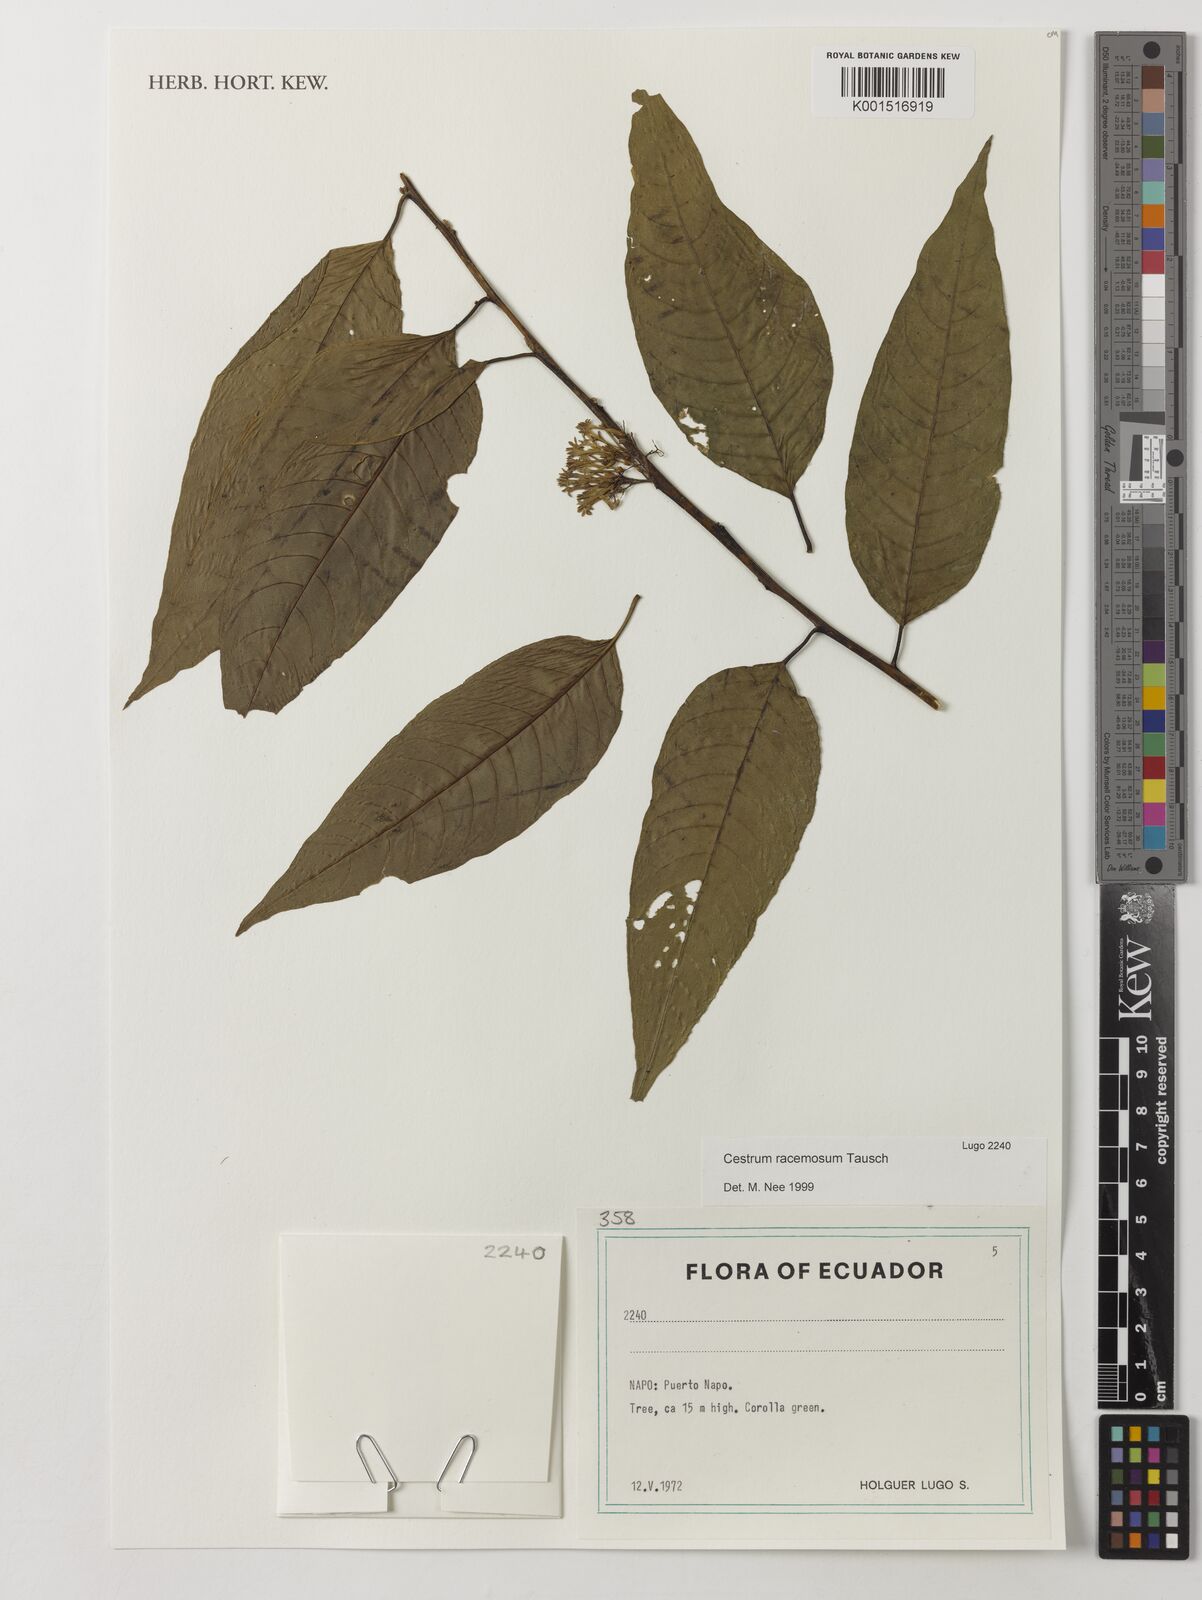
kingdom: Plantae
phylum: Tracheophyta
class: Magnoliopsida
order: Solanales
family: Solanaceae
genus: Cestrum
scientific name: Cestrum lindenii
